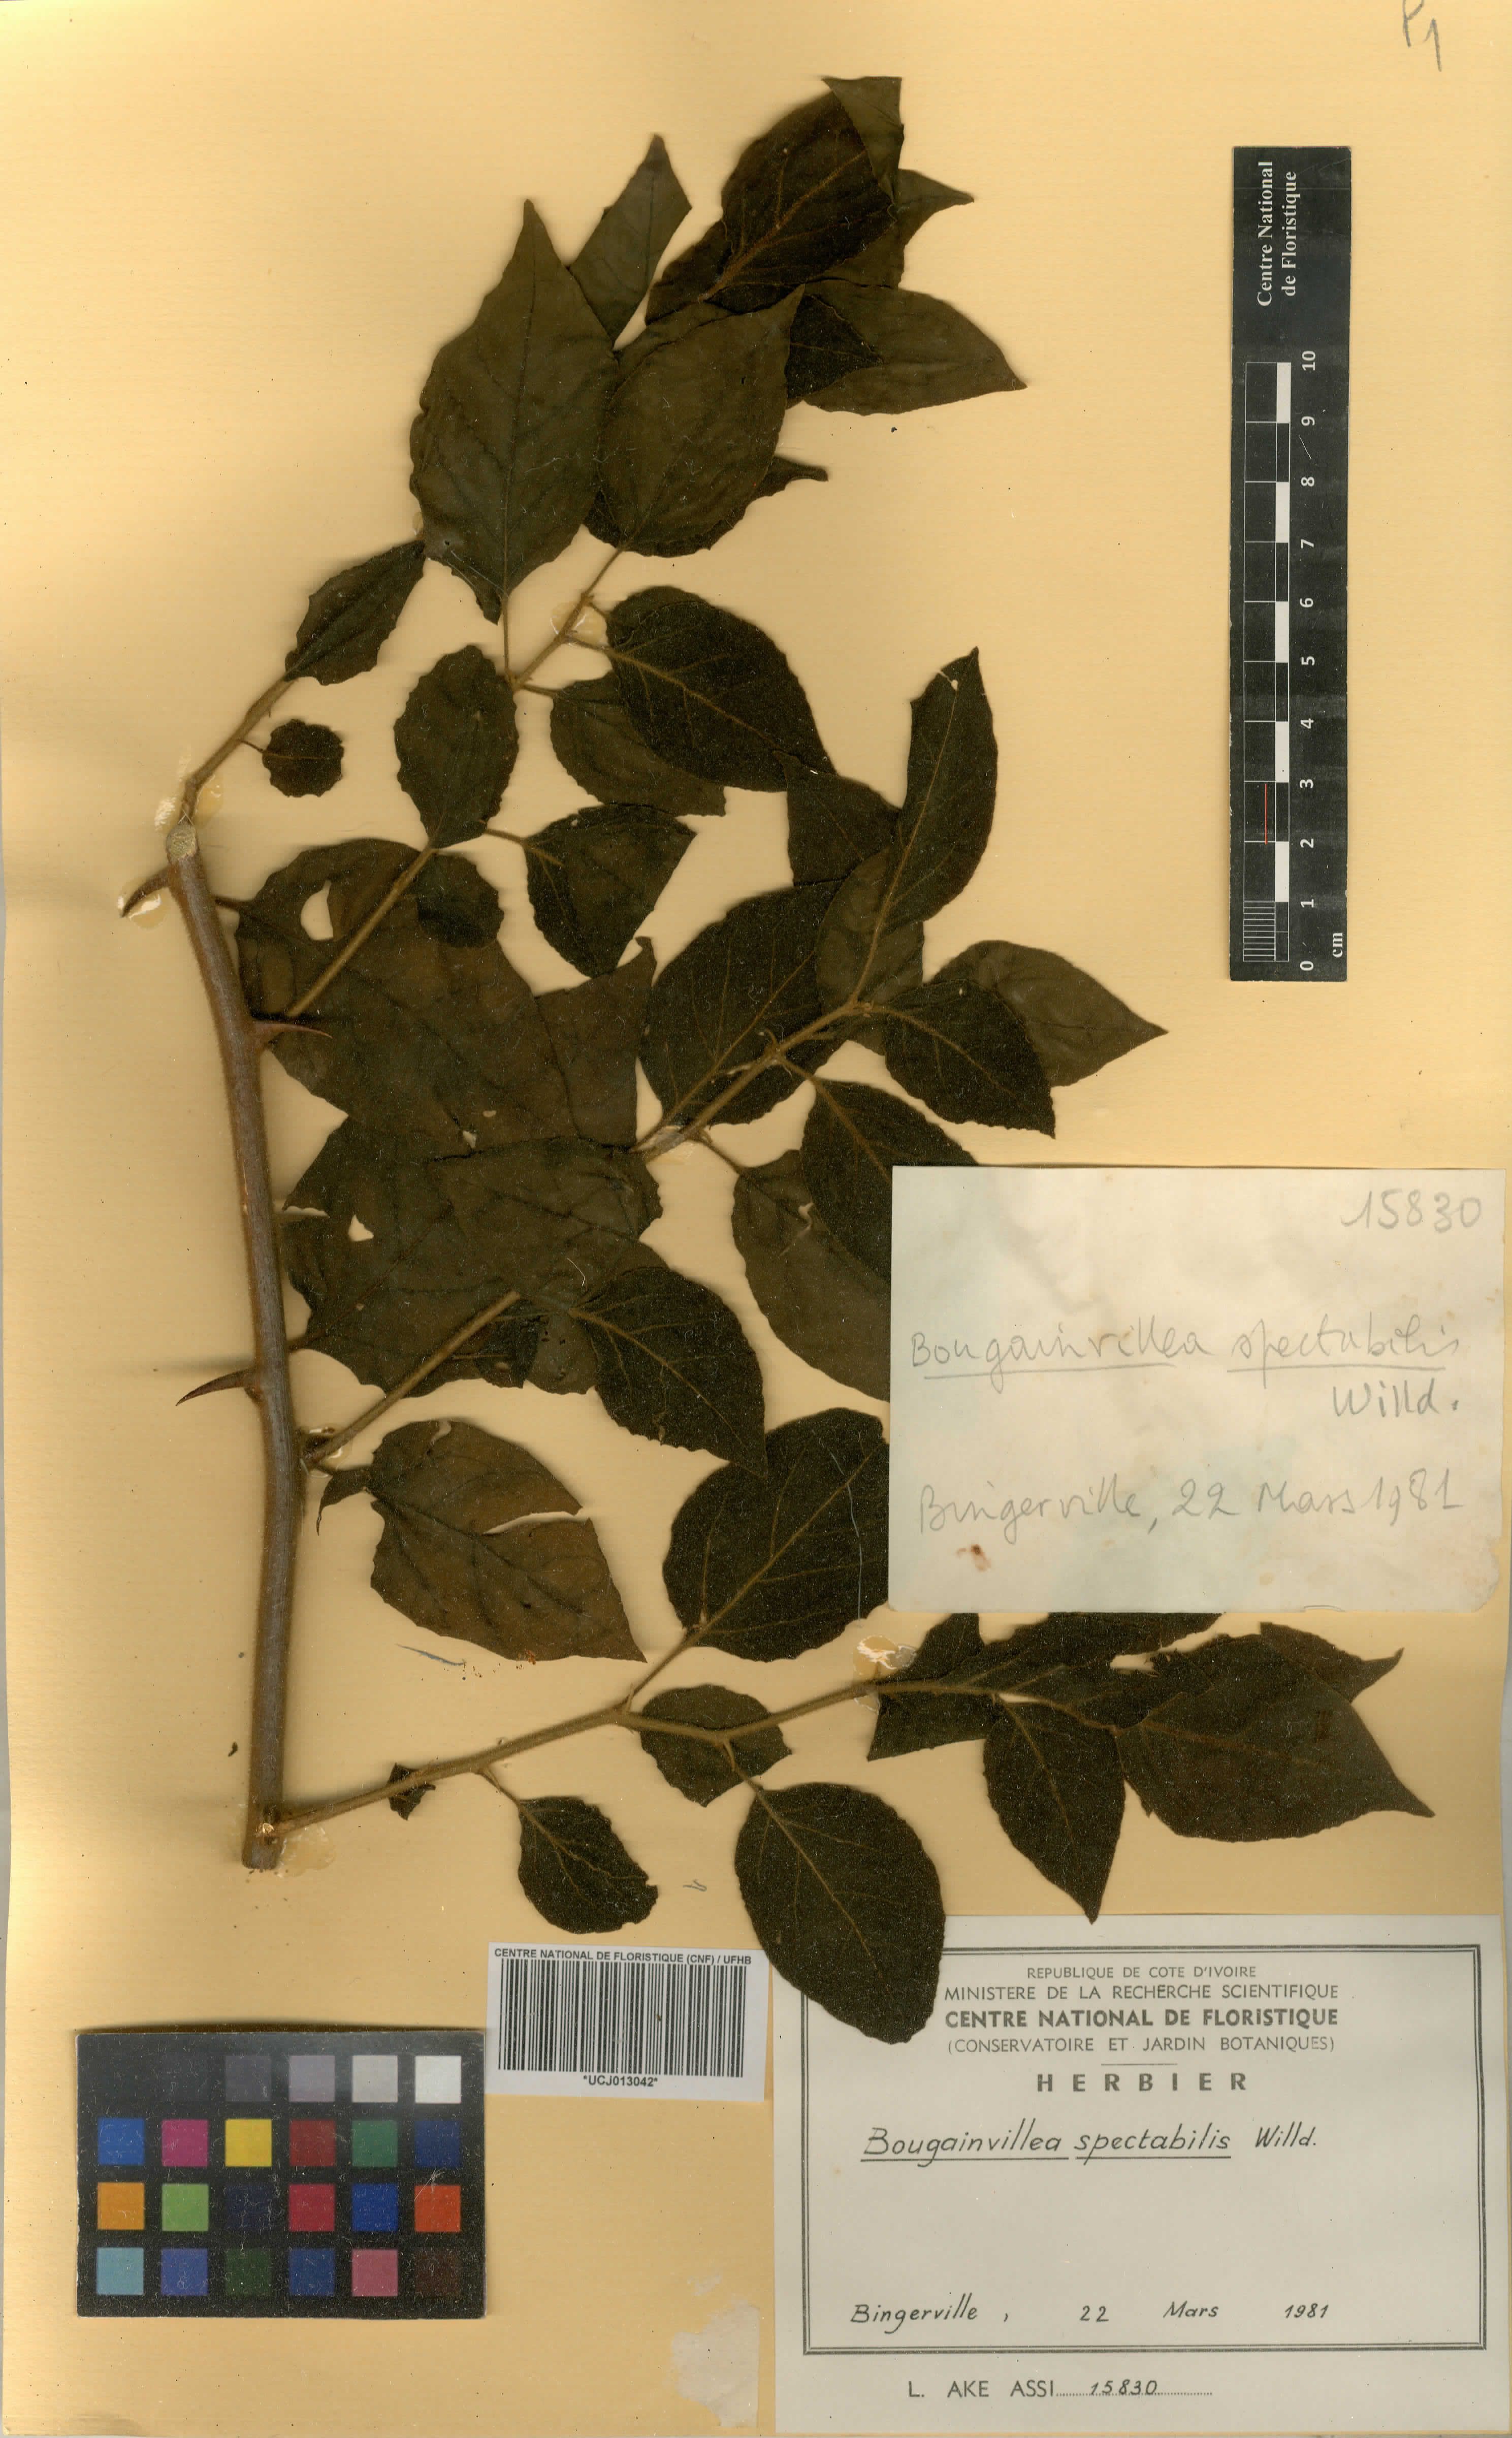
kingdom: Plantae
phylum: Tracheophyta
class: Magnoliopsida
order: Caryophyllales
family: Nyctaginaceae
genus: Bougainvillea
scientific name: Bougainvillea spectabilis
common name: Great bougainvillea
